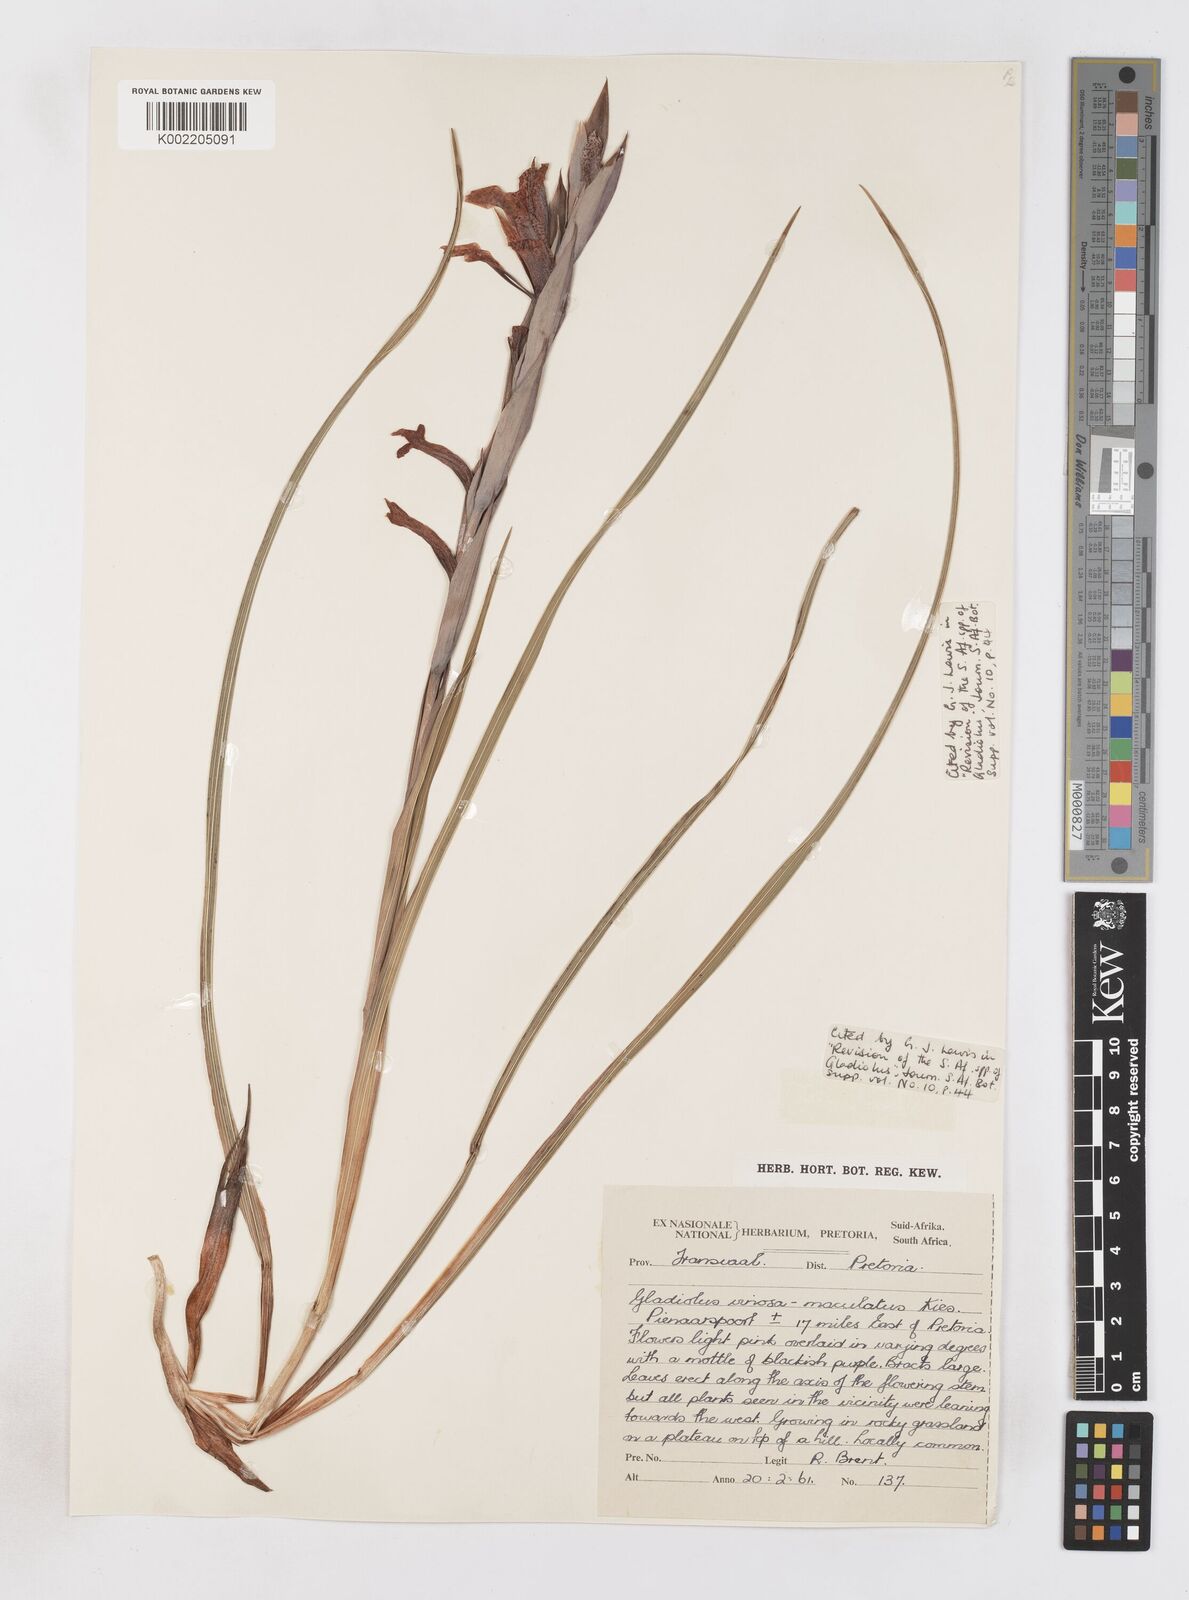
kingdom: Plantae
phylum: Tracheophyta
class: Liliopsida
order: Asparagales
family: Iridaceae
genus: Gladiolus
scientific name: Gladiolus vinosomaculatus
